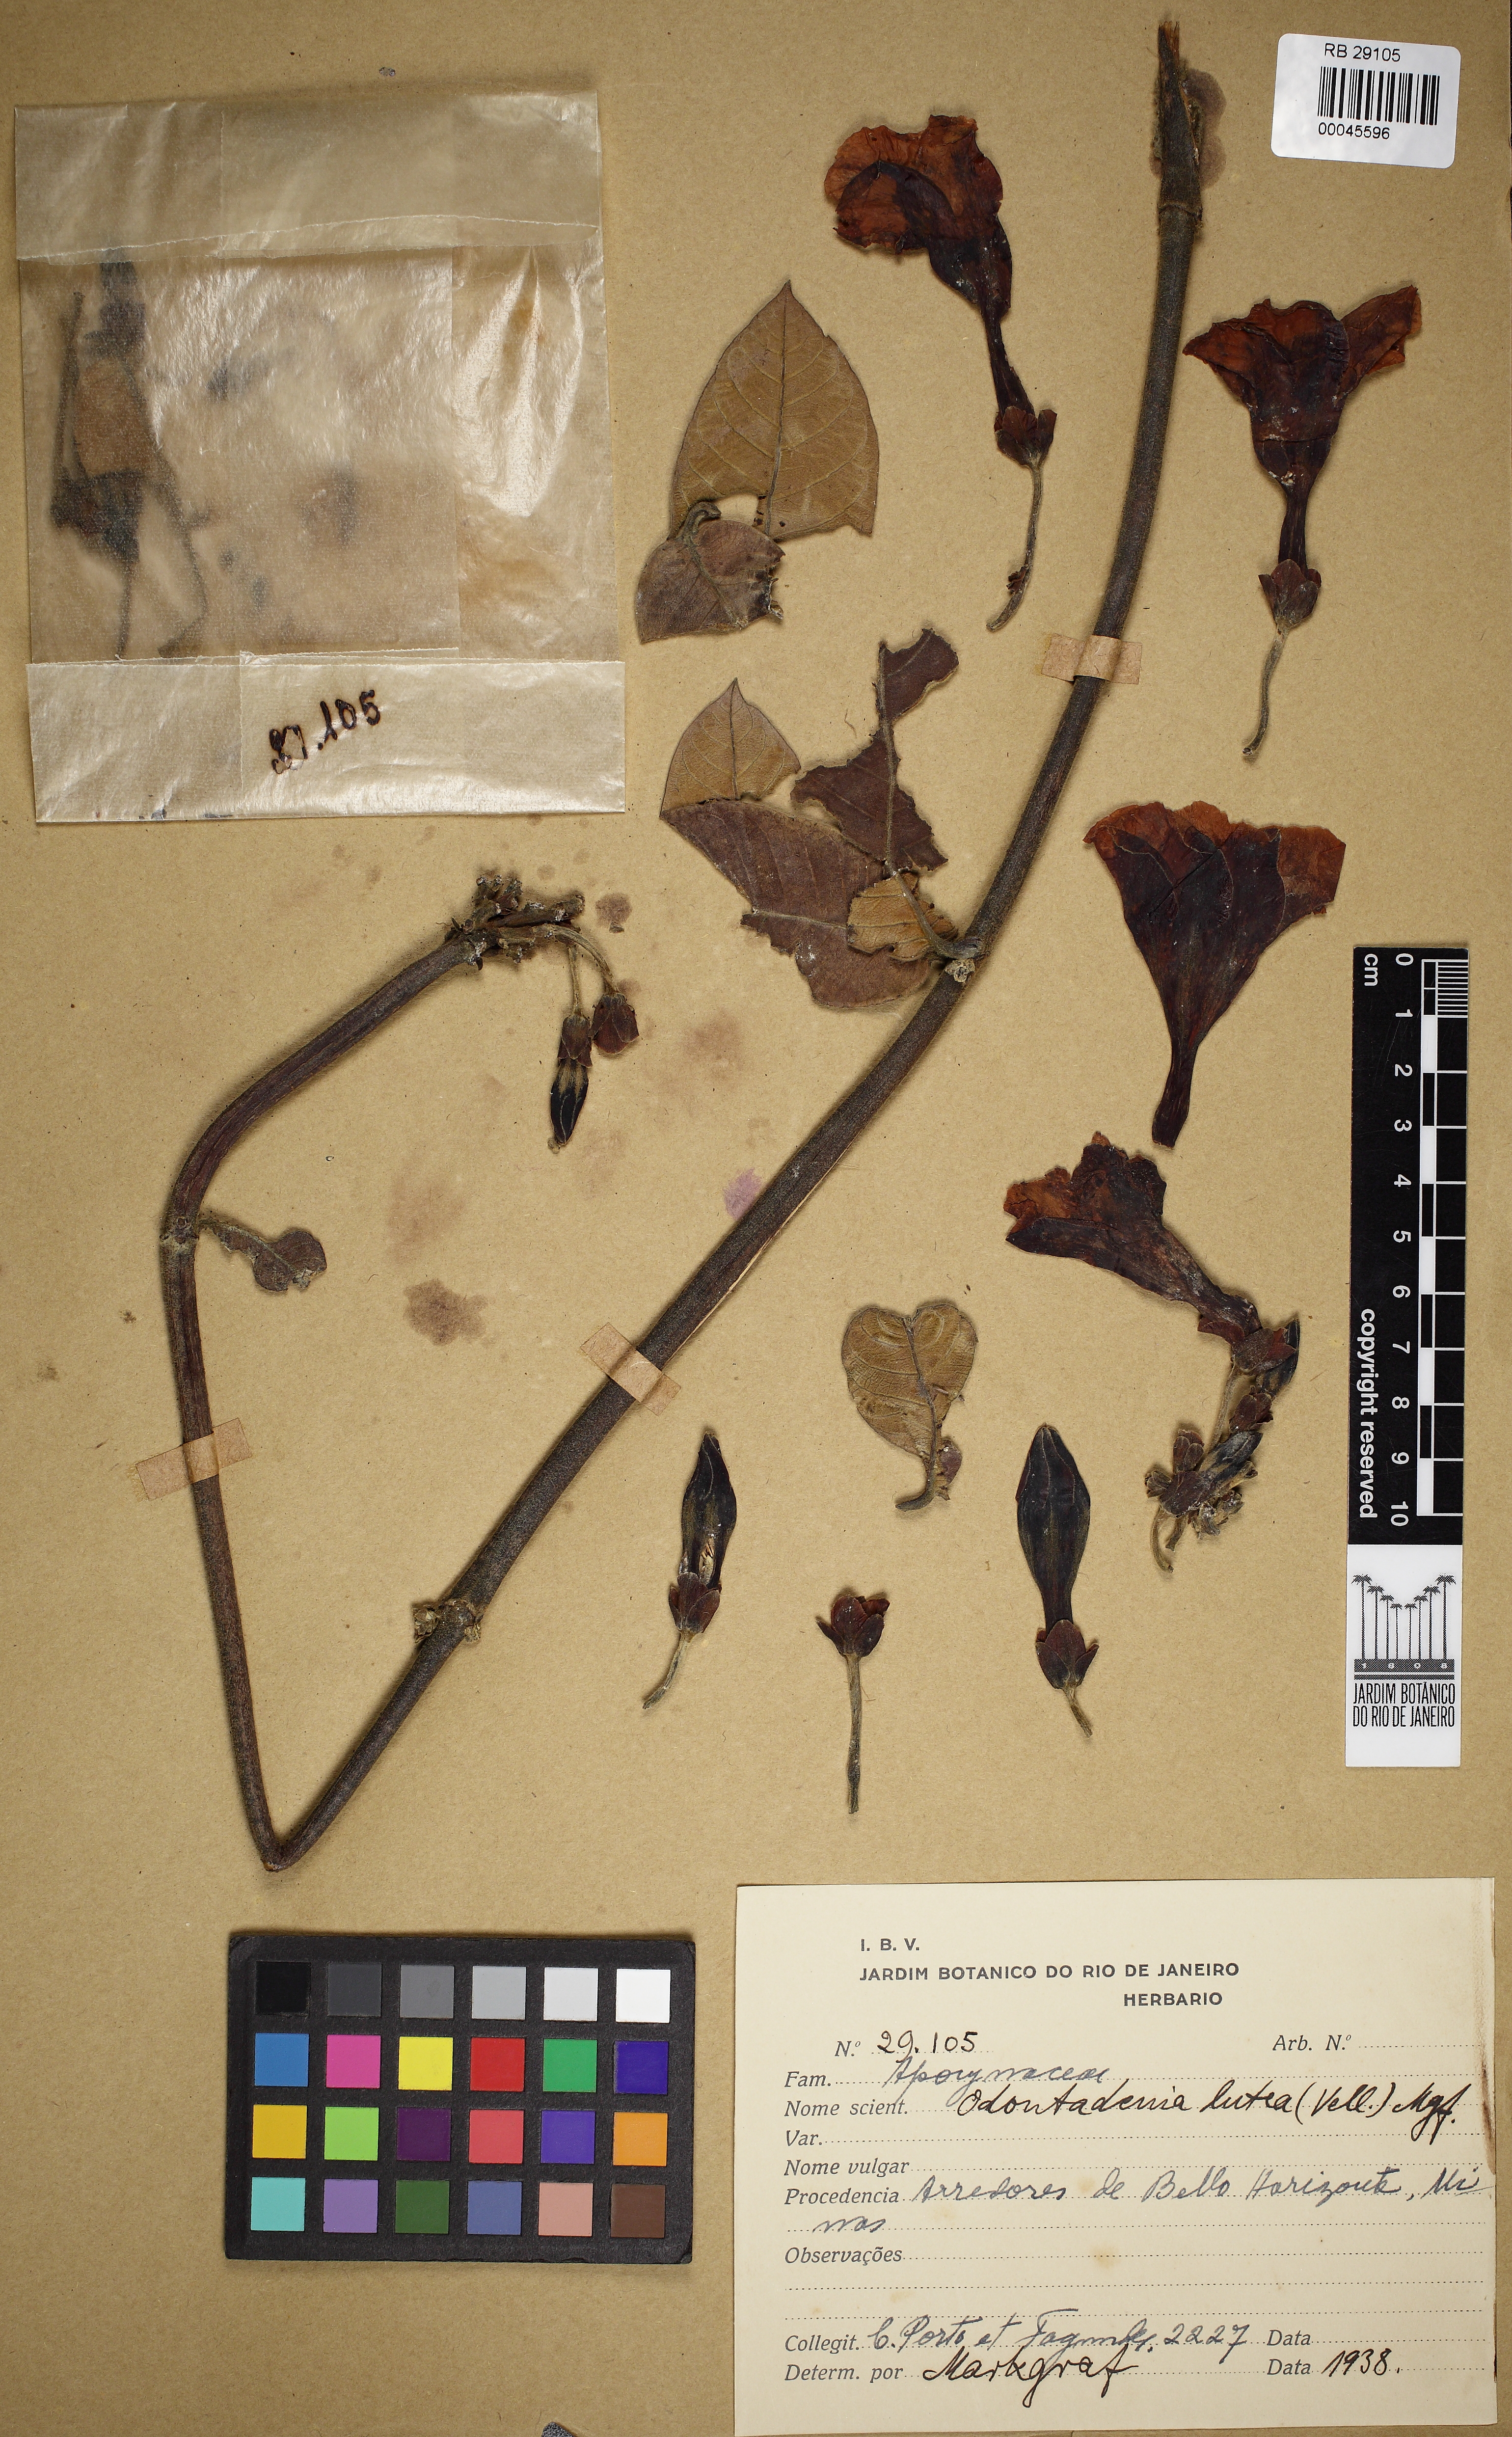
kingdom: Plantae
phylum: Tracheophyta
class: Magnoliopsida
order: Gentianales
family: Apocynaceae
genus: Odontadenia
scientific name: Odontadenia lutea
